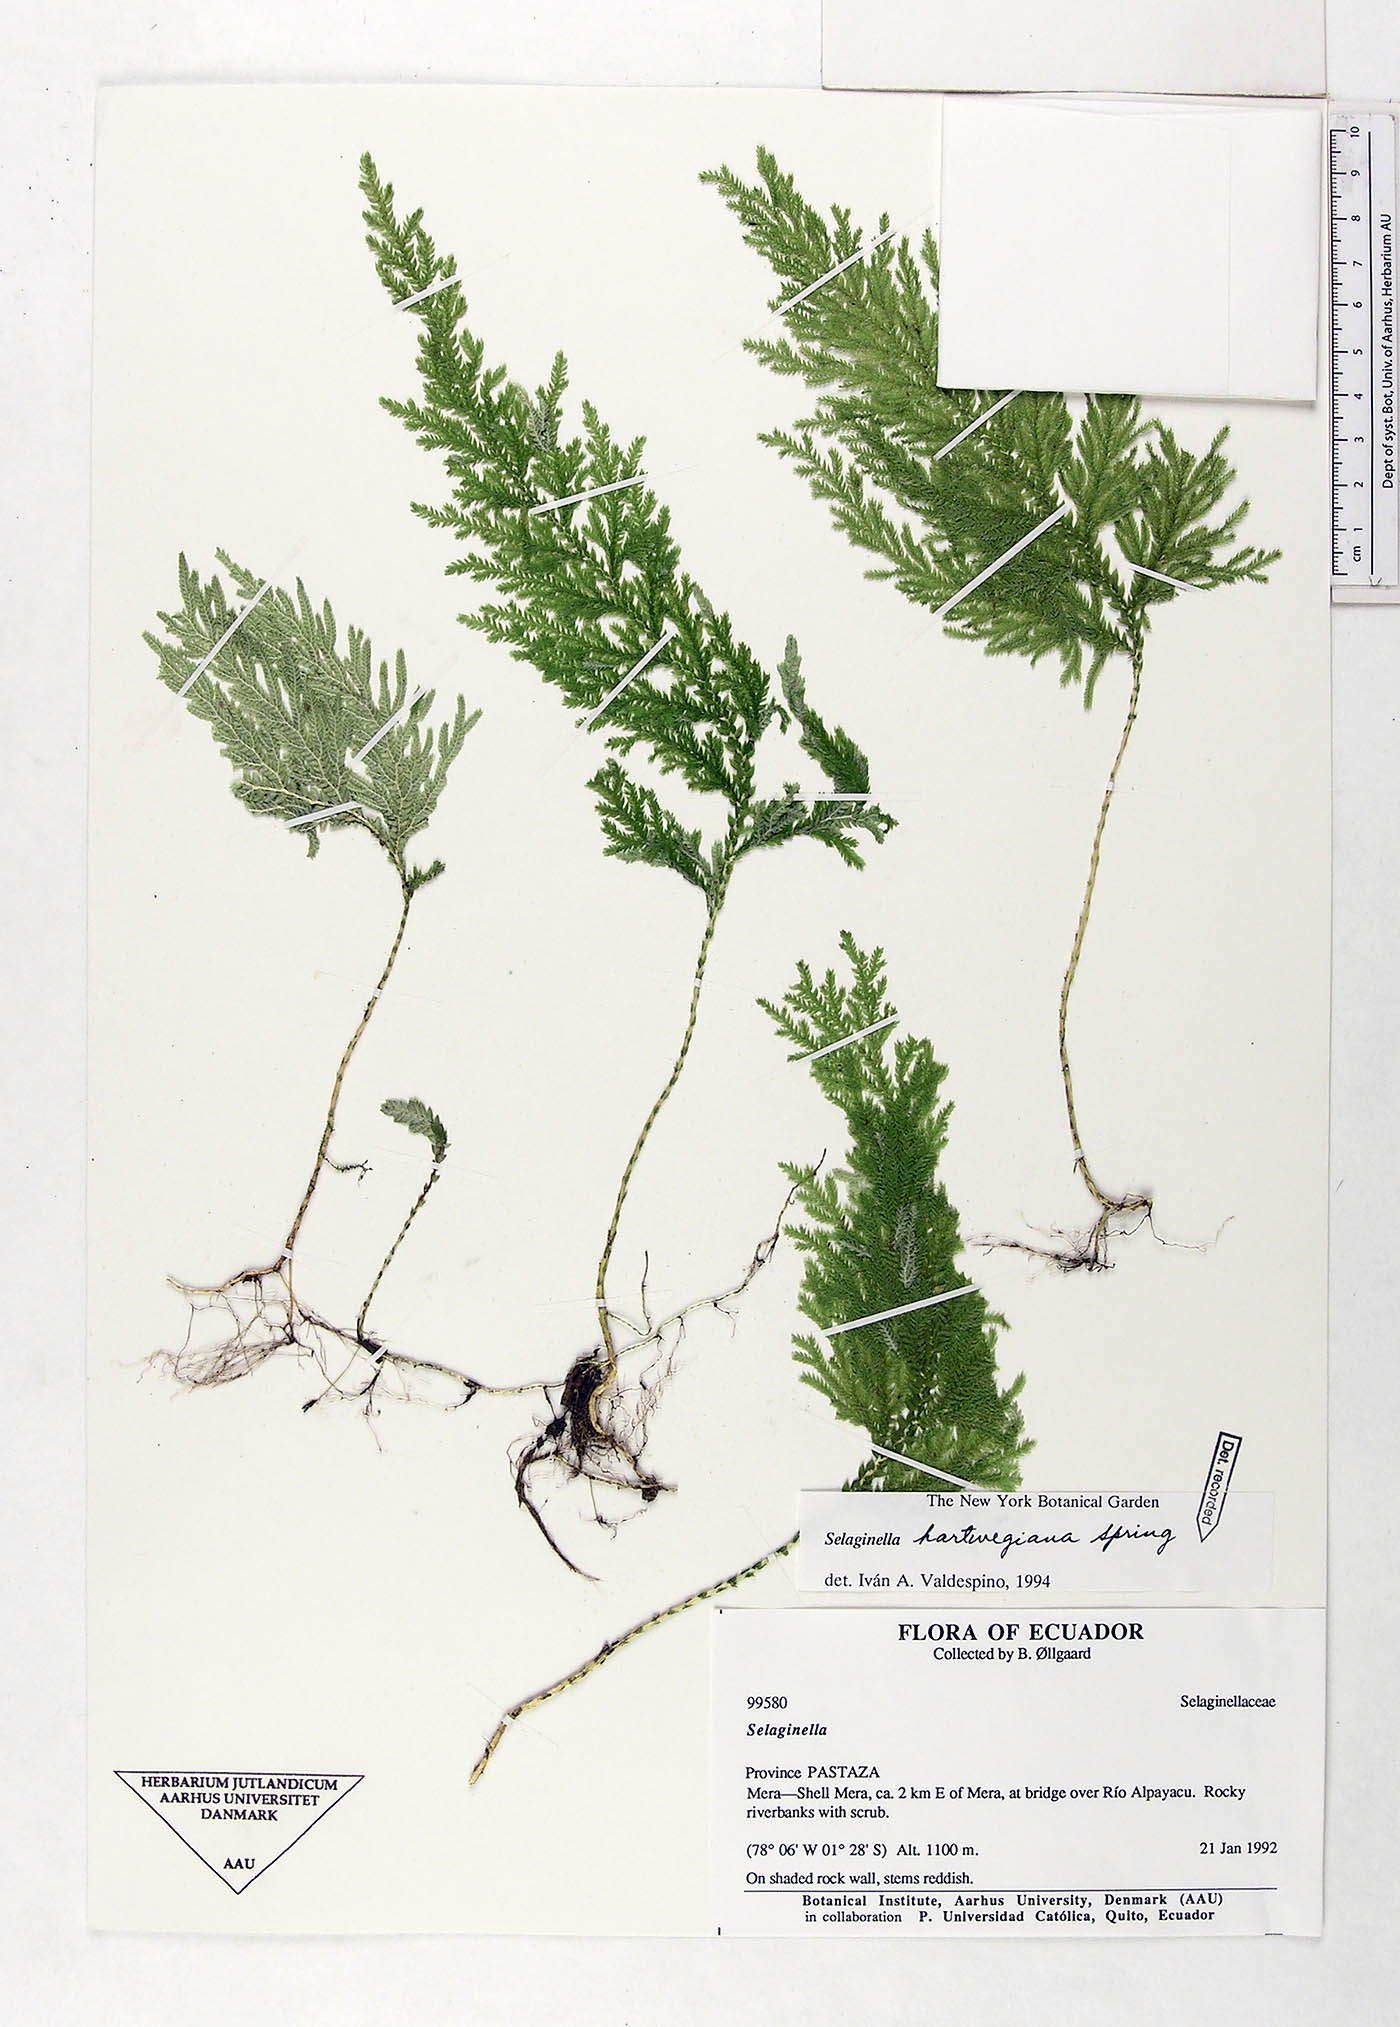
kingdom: Plantae
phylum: Tracheophyta
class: Lycopodiopsida
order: Selaginellales
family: Selaginellaceae
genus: Selaginella
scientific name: Selaginella hartwegiana
